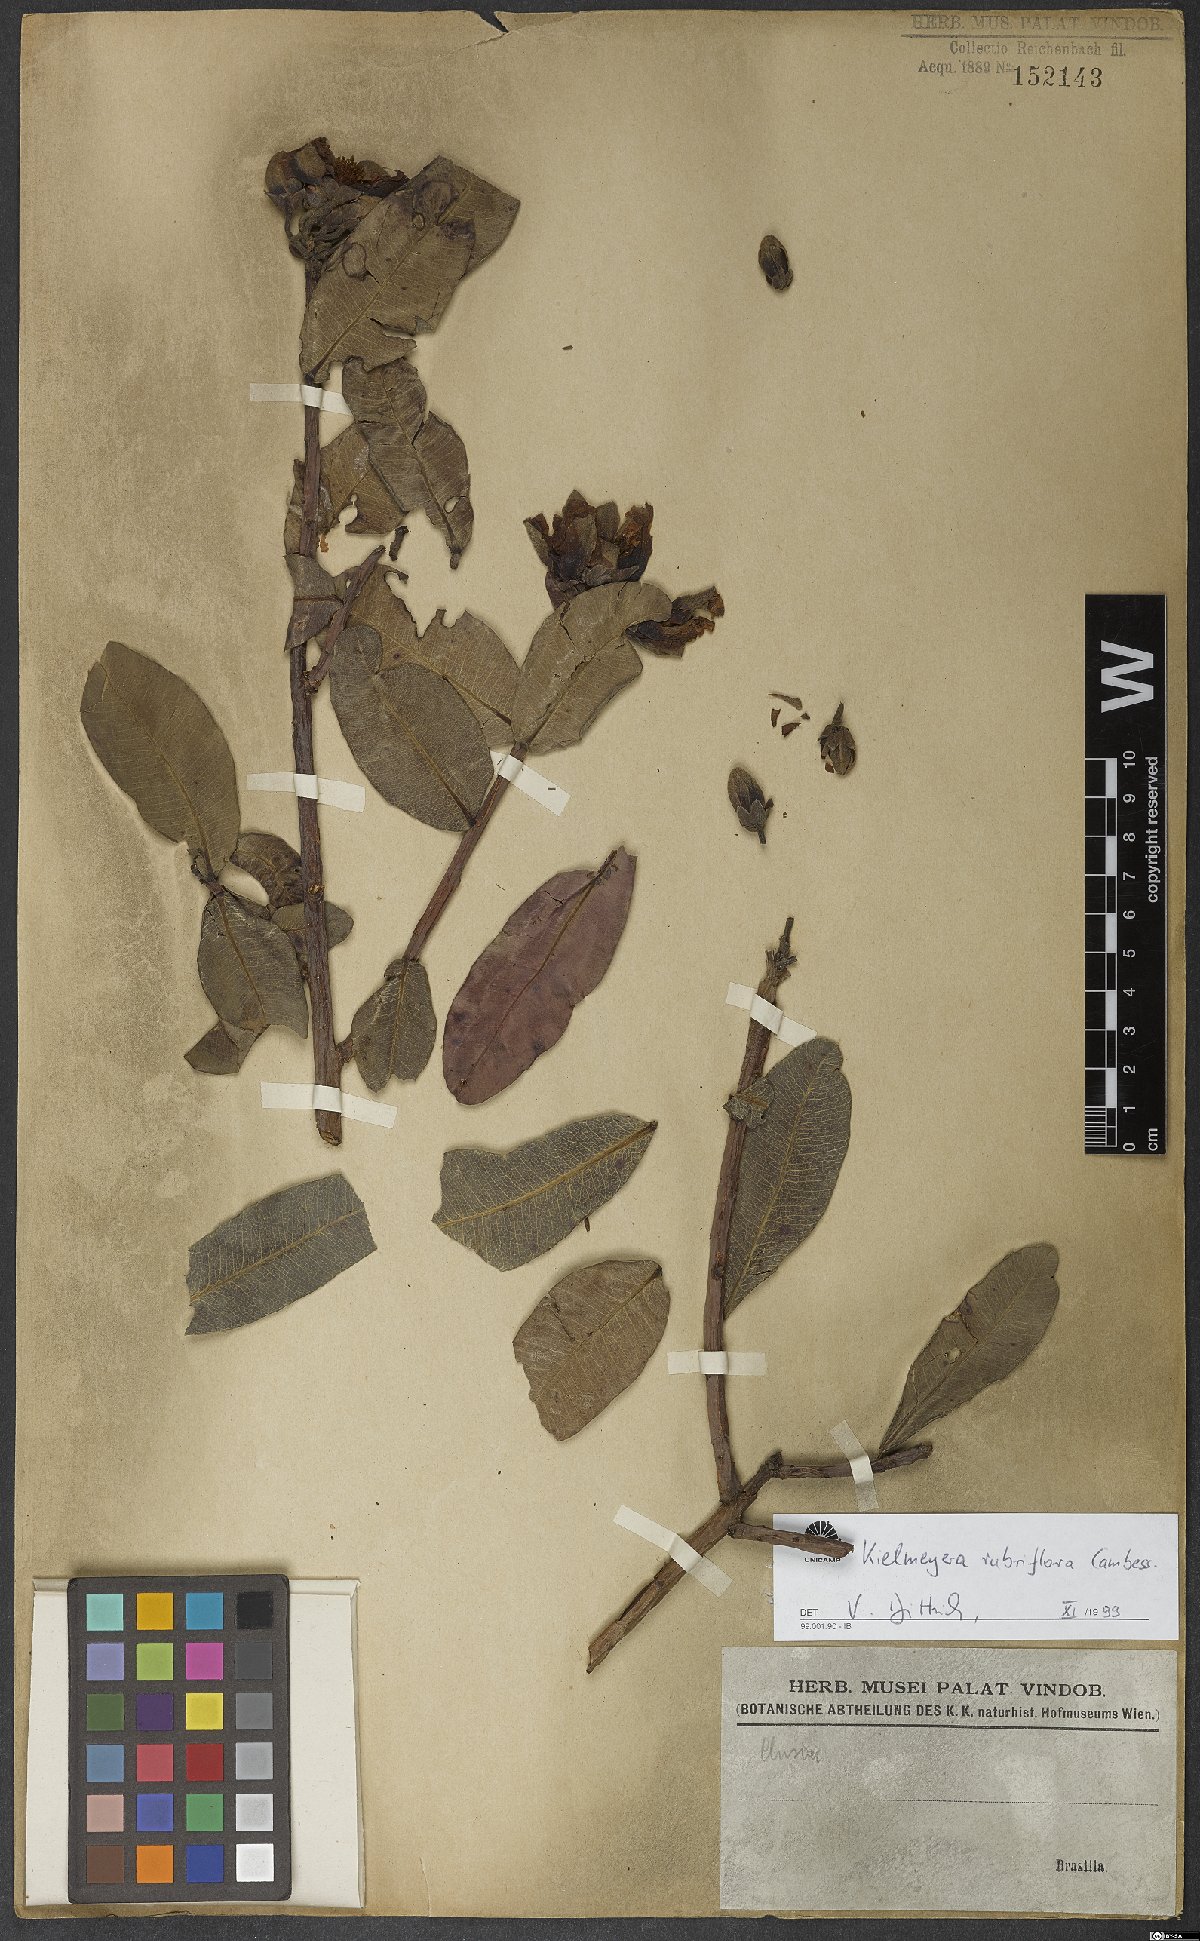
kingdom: Plantae
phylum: Tracheophyta
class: Magnoliopsida
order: Malpighiales
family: Calophyllaceae
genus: Kielmeyera
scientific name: Kielmeyera rubriflora
